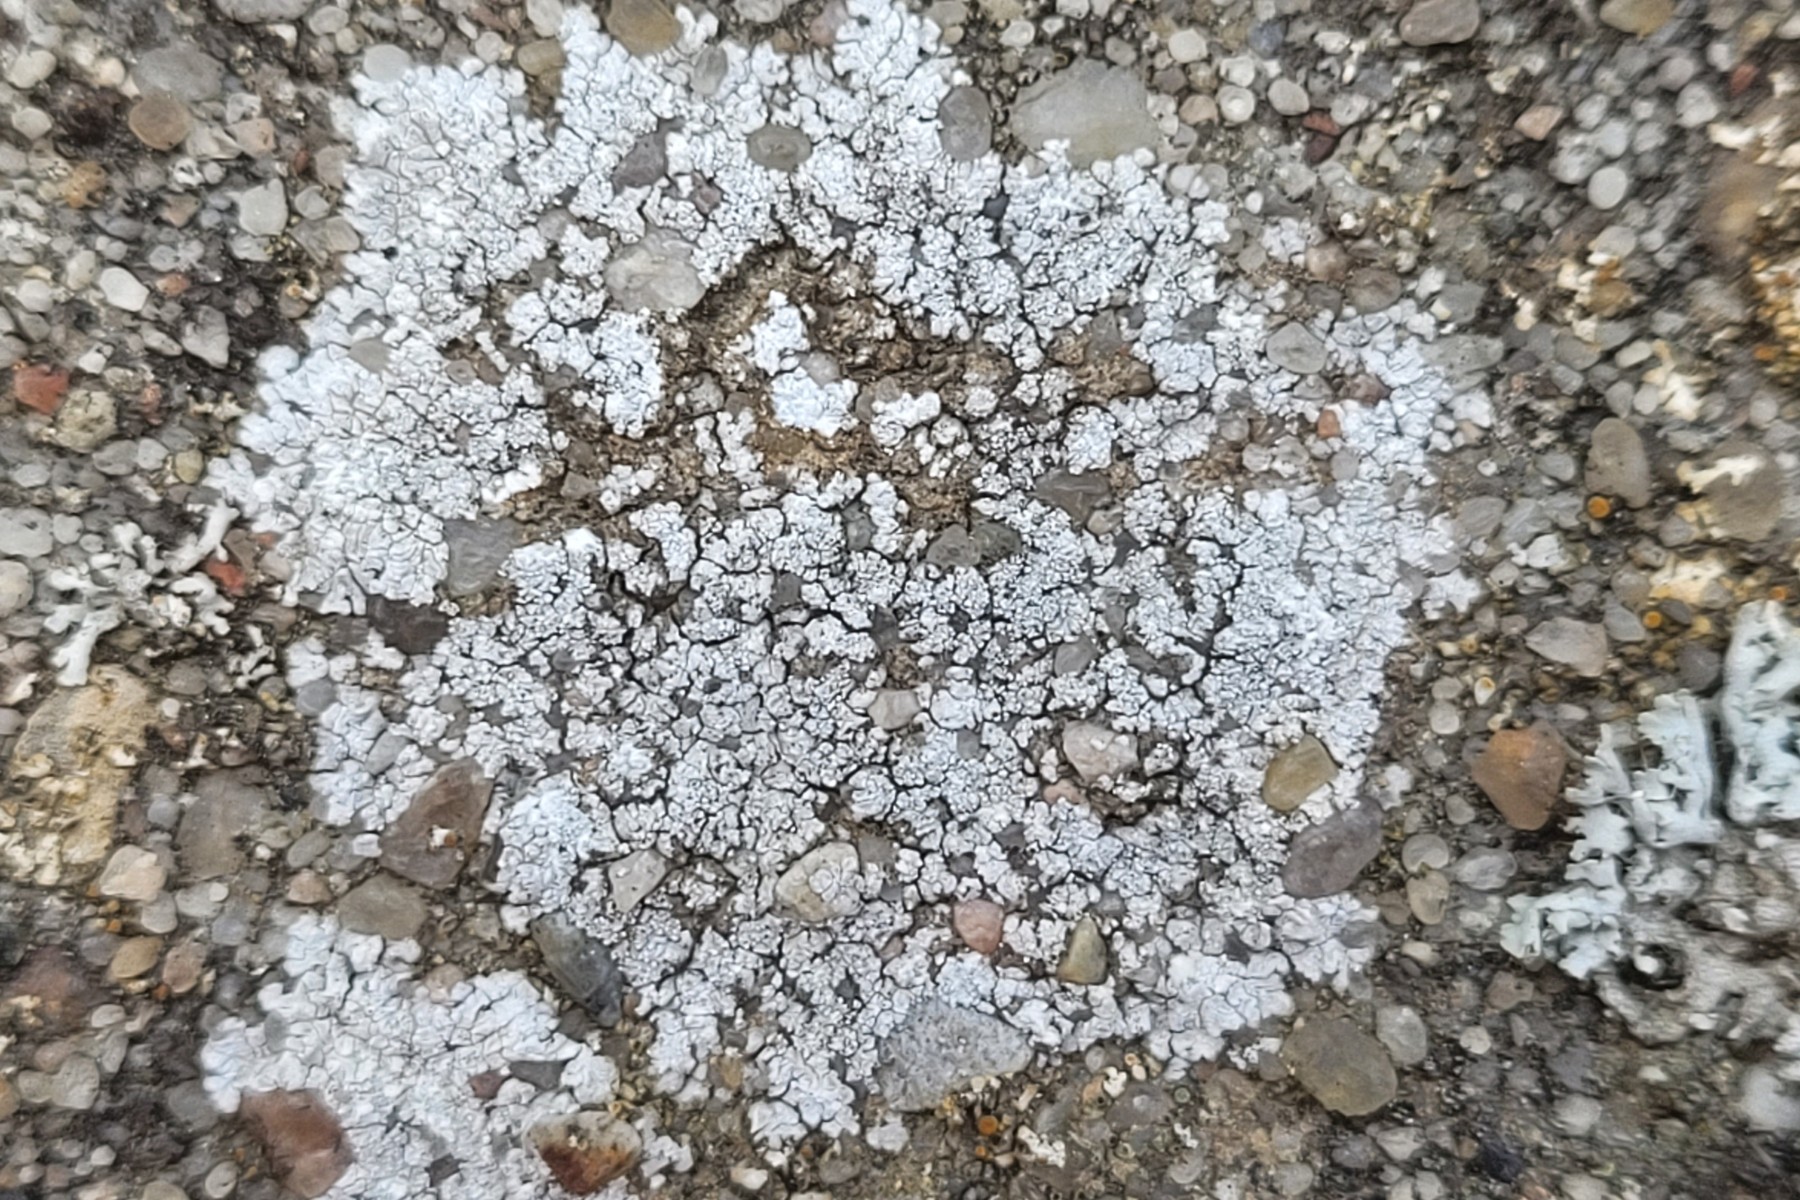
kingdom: Fungi
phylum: Ascomycota
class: Lecanoromycetes
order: Teloschistales
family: Teloschistaceae
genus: Kuettlingeria
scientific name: Kuettlingeria teicholyta
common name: grå orangelav
